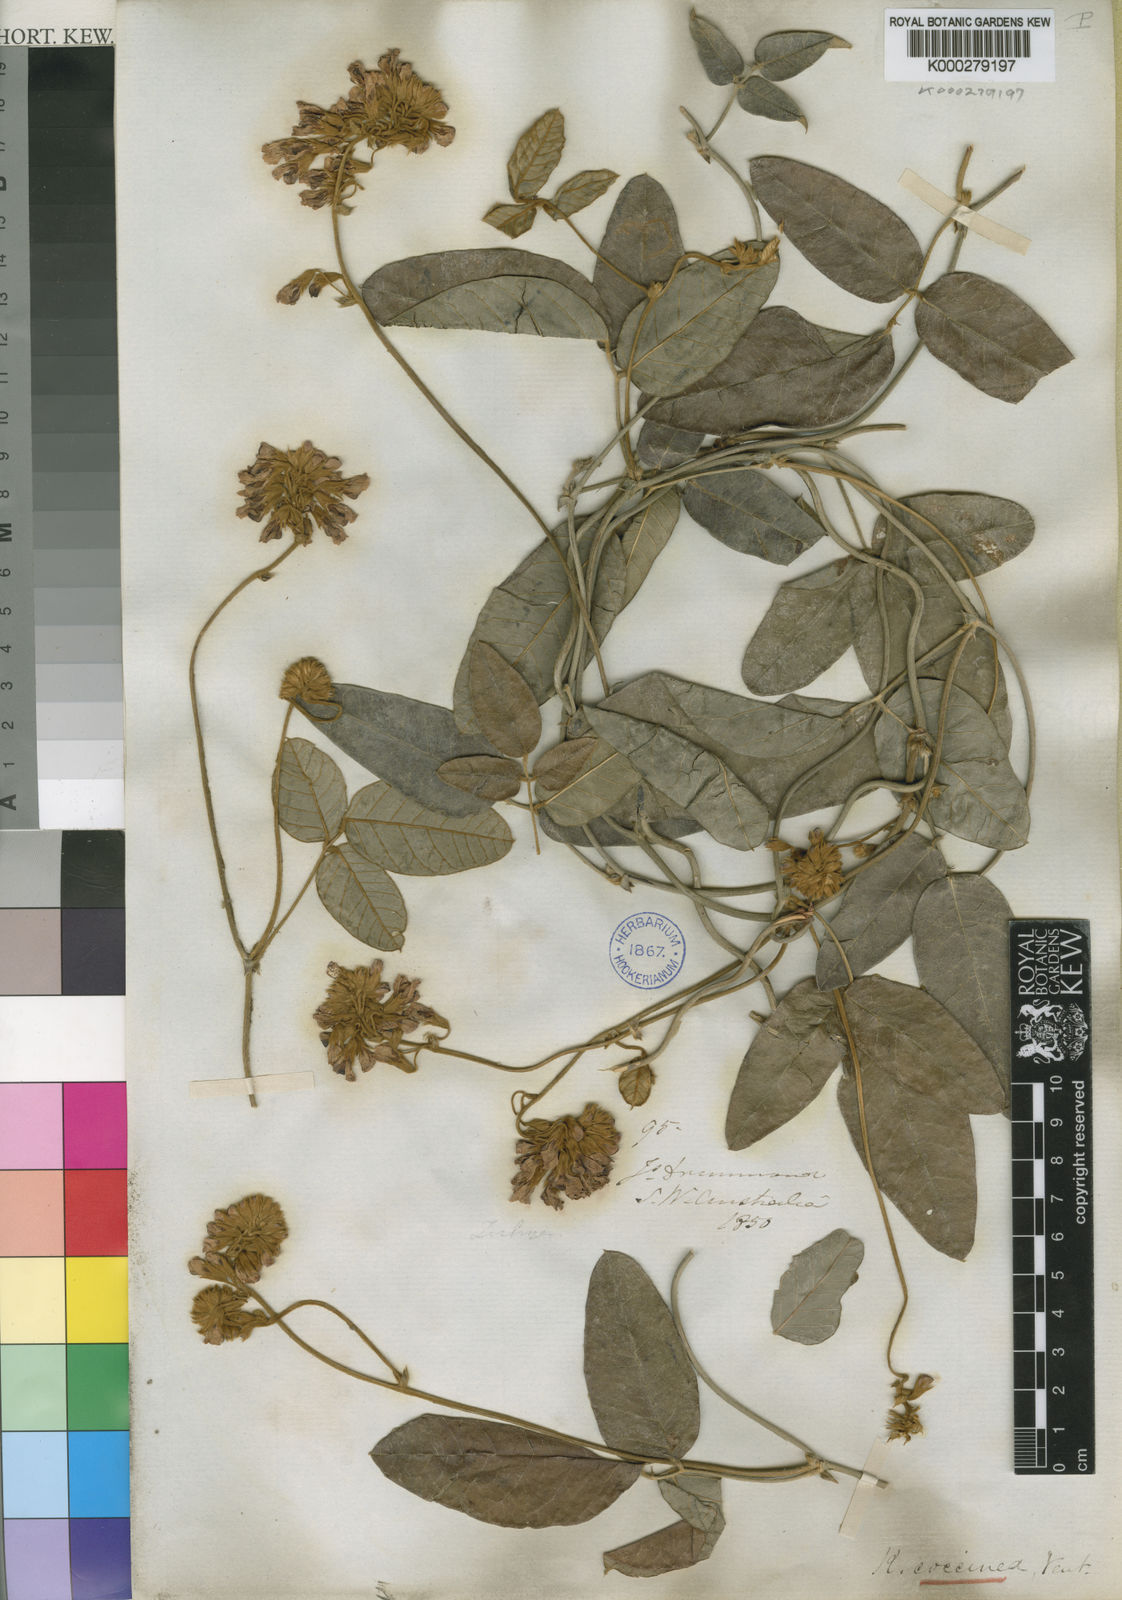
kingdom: Plantae
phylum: Tracheophyta
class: Magnoliopsida
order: Fabales
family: Fabaceae
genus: Kennedia
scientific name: Kennedia coccinea
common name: Coralvine
